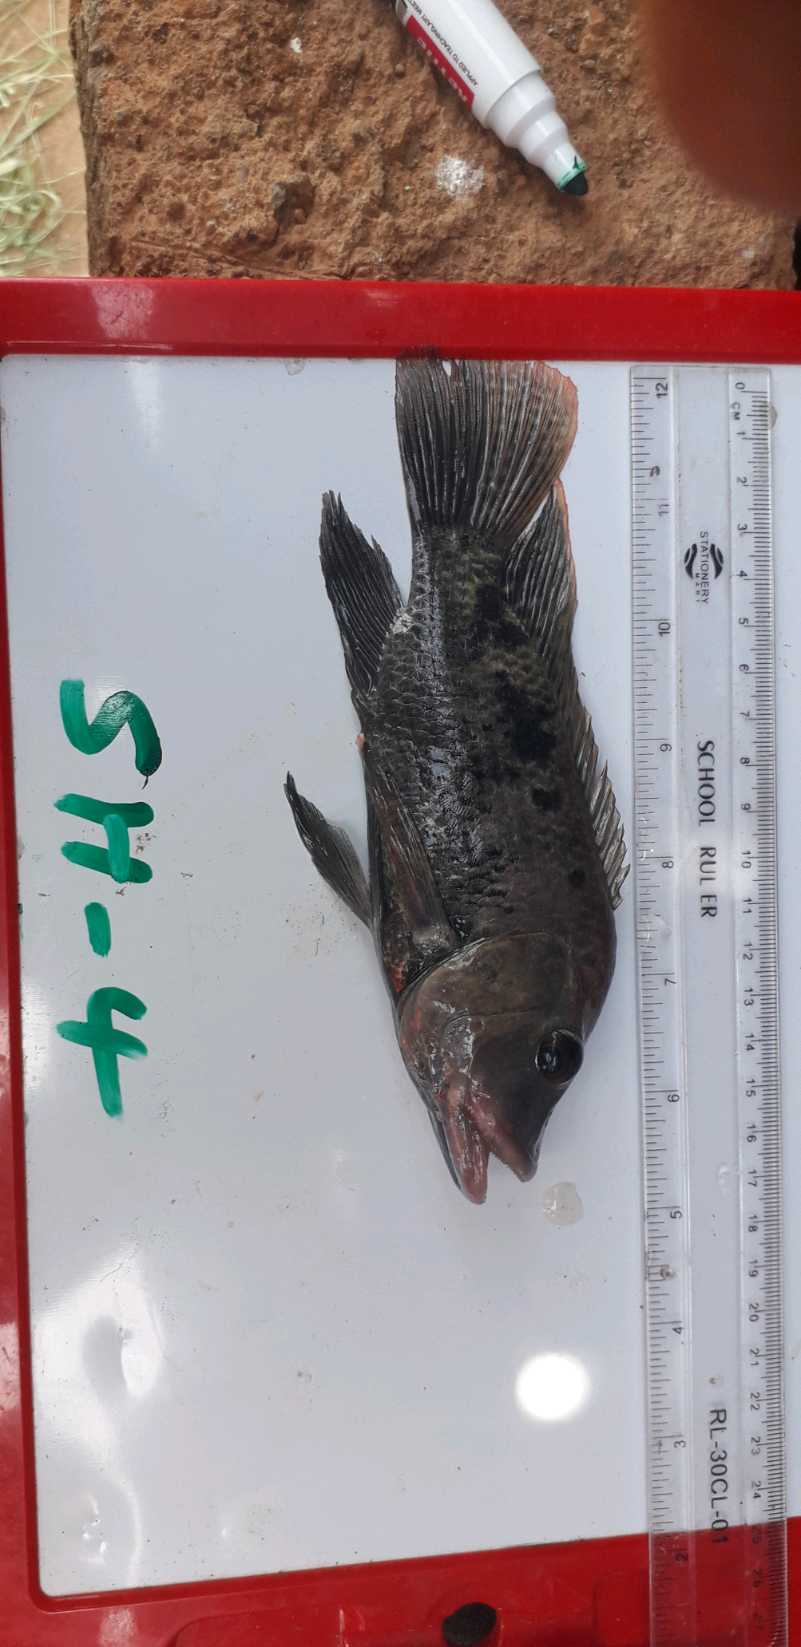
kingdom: Animalia
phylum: Chordata
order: Perciformes
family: Cichlidae
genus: Oreochromis
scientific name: Oreochromis urolepis
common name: Wami tilapia
